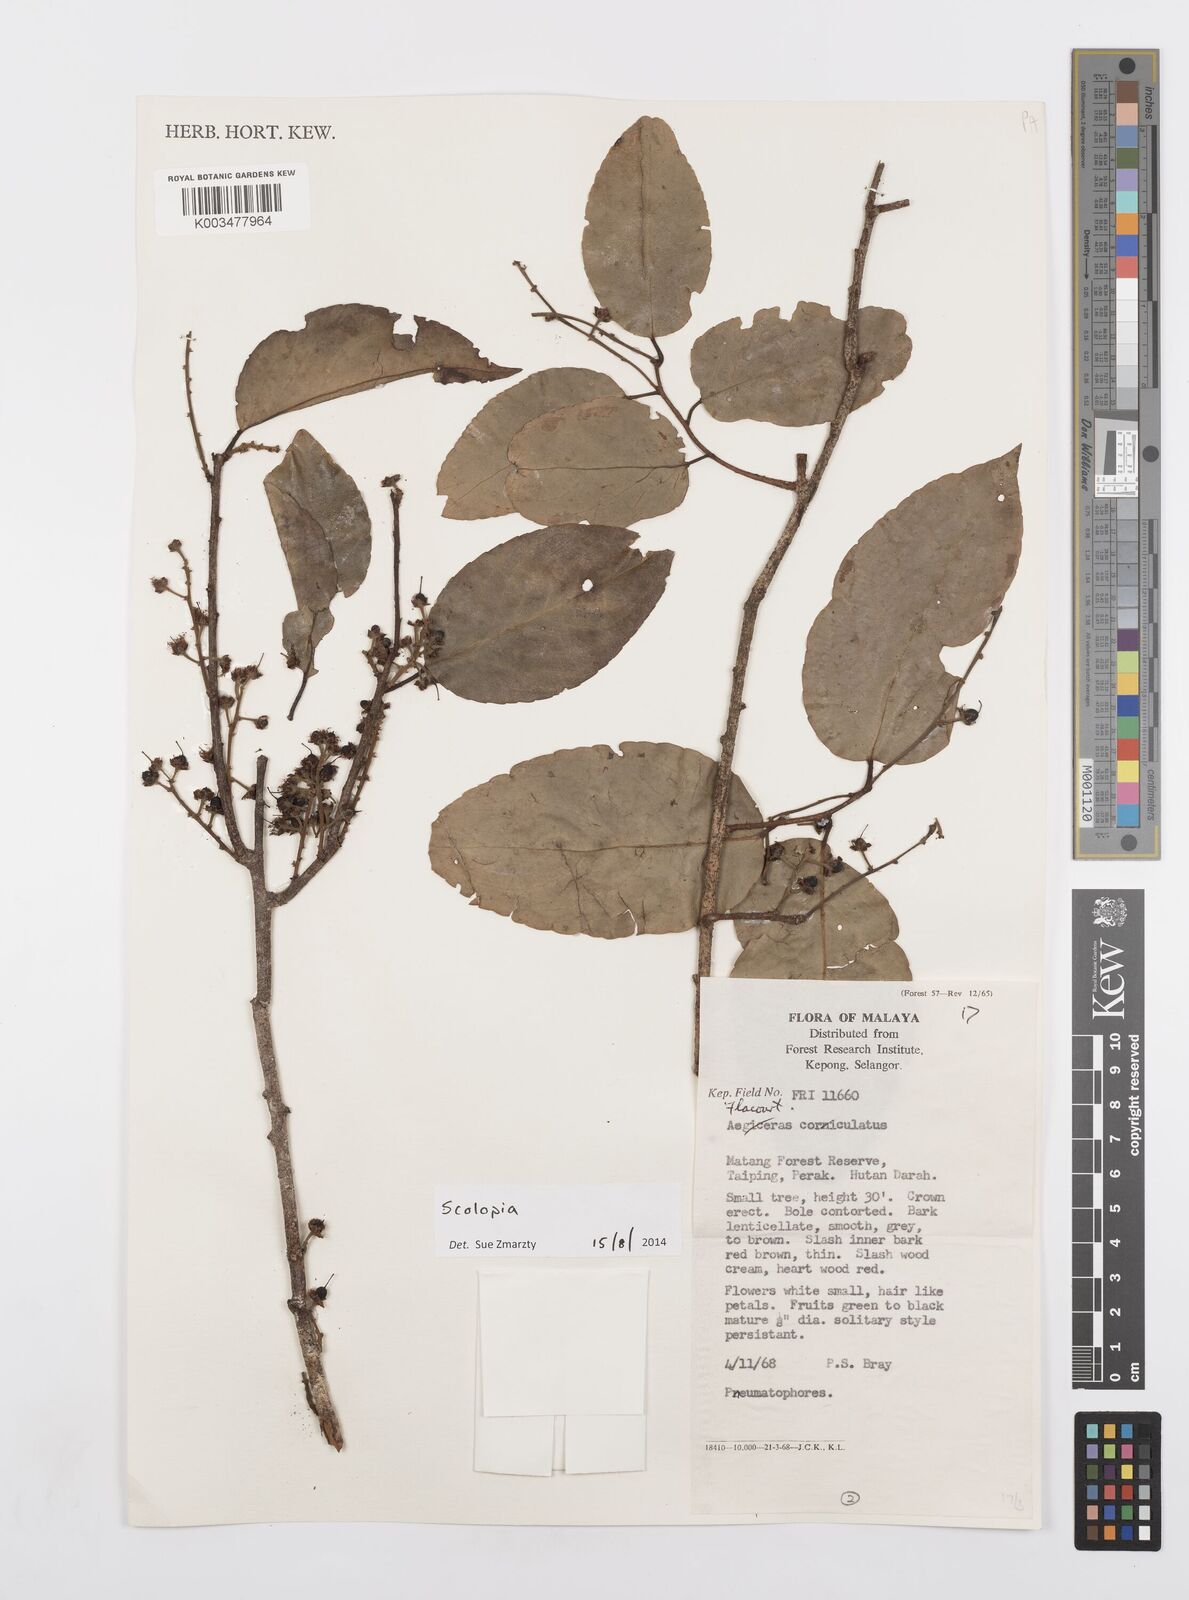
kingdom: Plantae
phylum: Tracheophyta
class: Magnoliopsida
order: Malpighiales
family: Salicaceae
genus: Scolopia
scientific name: Scolopia
